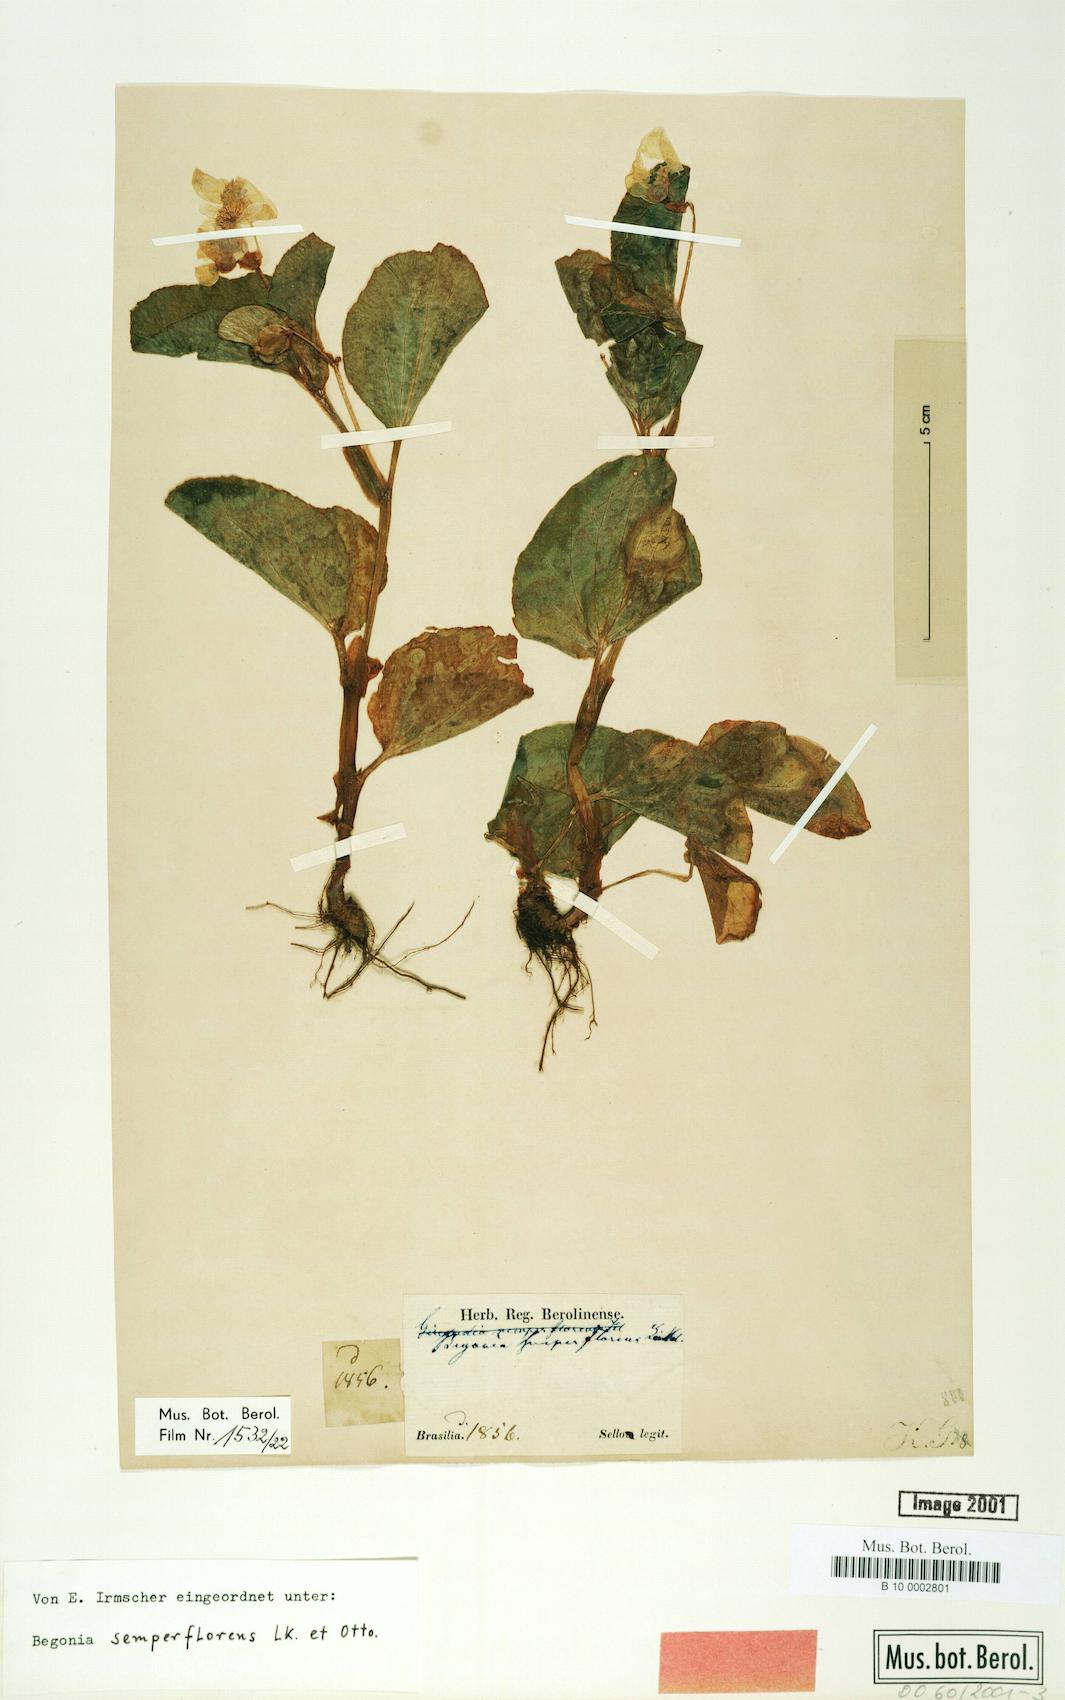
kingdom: Plantae
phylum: Tracheophyta
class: Magnoliopsida
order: Cucurbitales
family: Begoniaceae
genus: Begonia
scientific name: Begonia semperflorens
